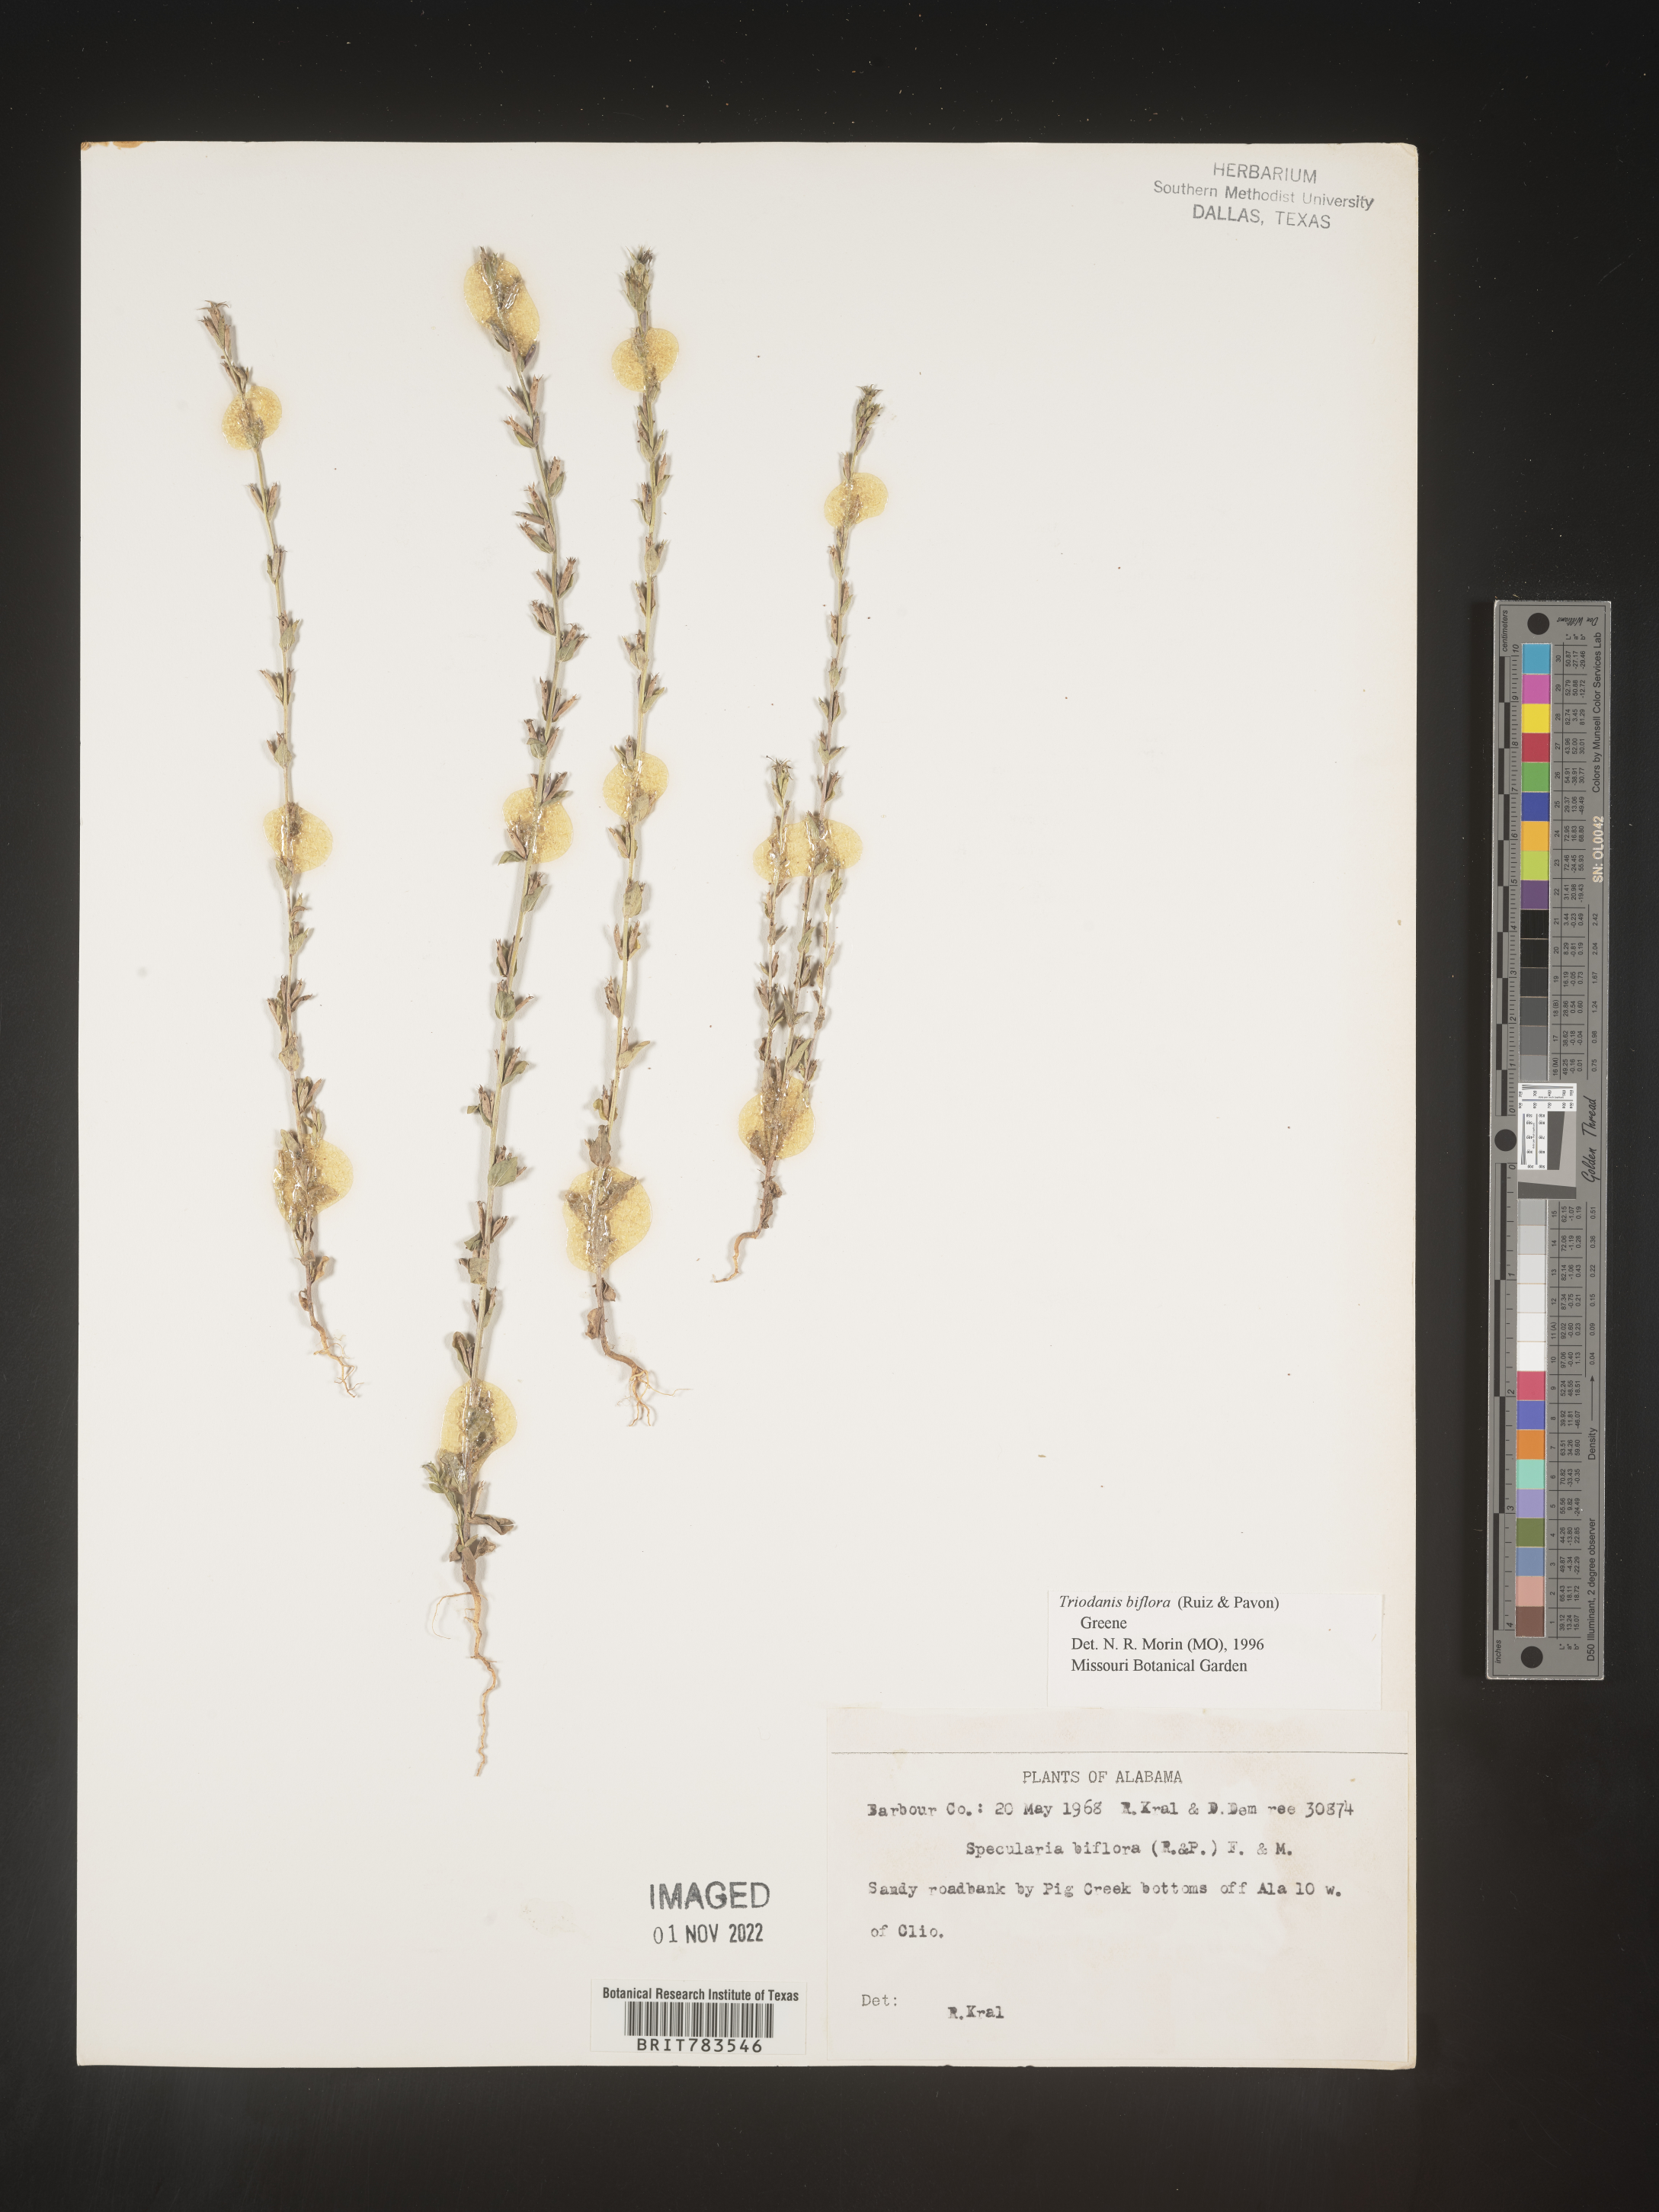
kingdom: Plantae
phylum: Tracheophyta
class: Magnoliopsida
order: Asterales
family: Campanulaceae
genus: Triodanis
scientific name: Triodanis perfoliata
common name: Clasping venus' looking-glass
